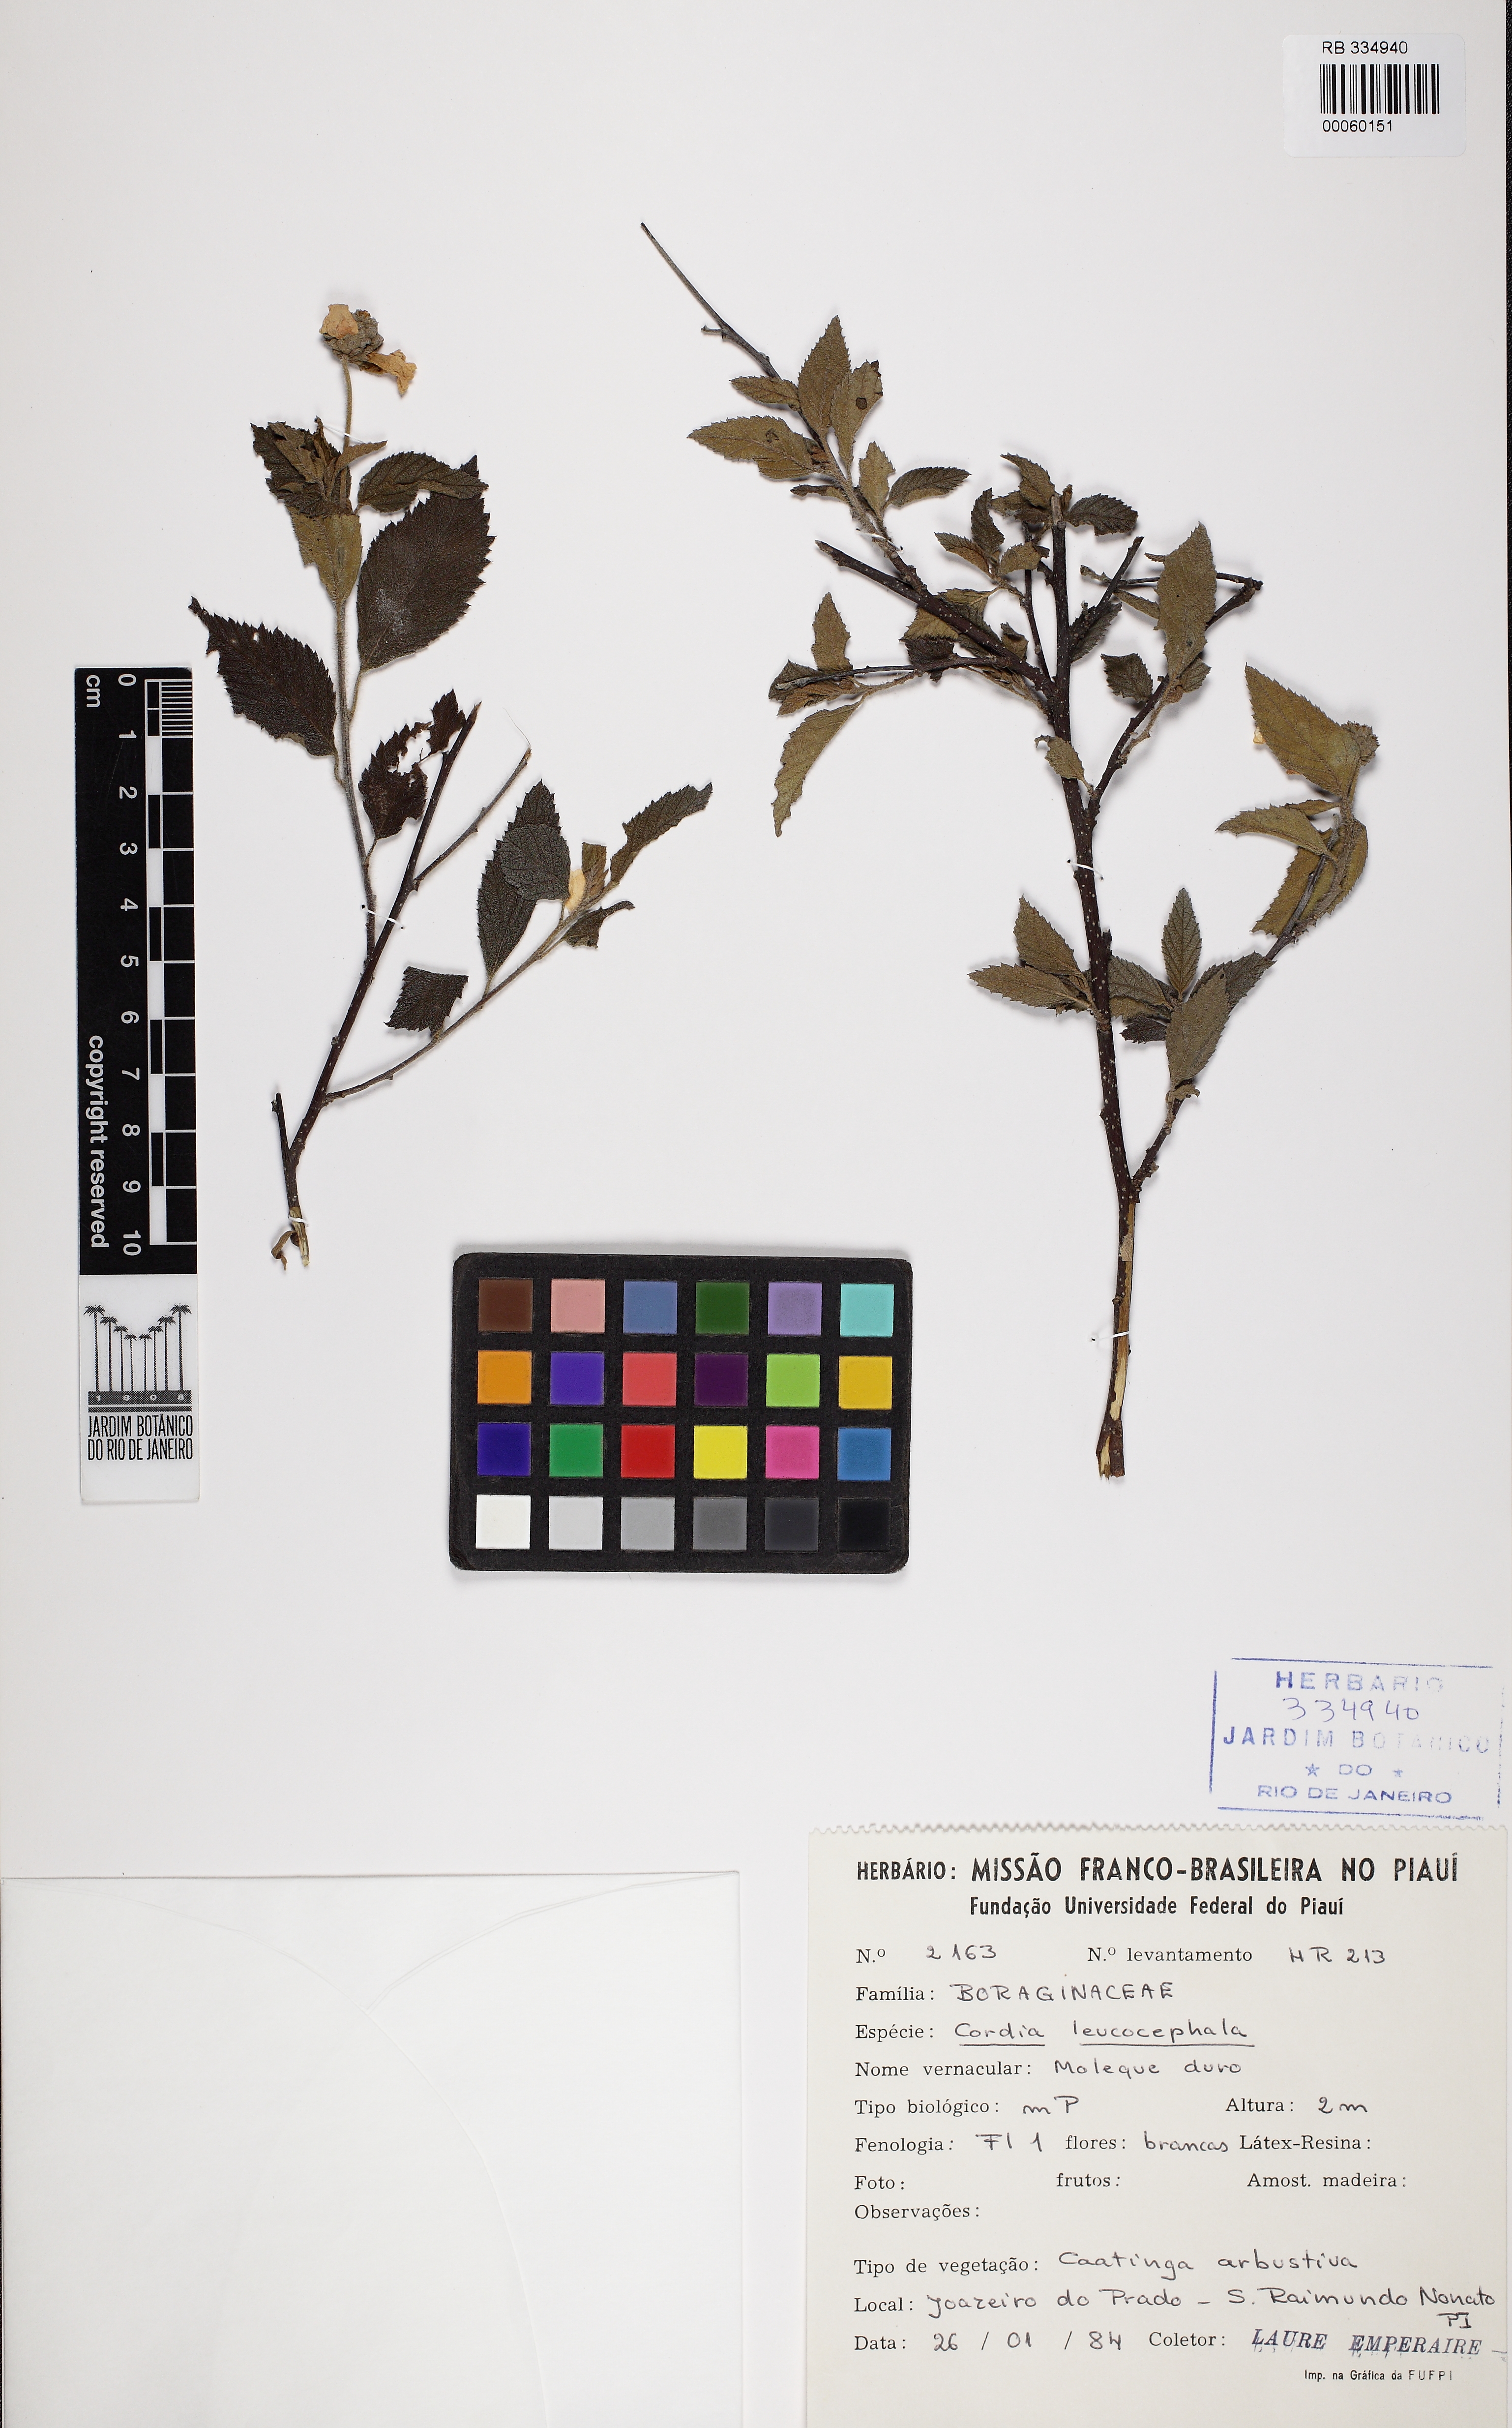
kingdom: Plantae
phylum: Tracheophyta
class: Magnoliopsida
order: Boraginales
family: Cordiaceae
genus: Varronia
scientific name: Varronia leucocephala
